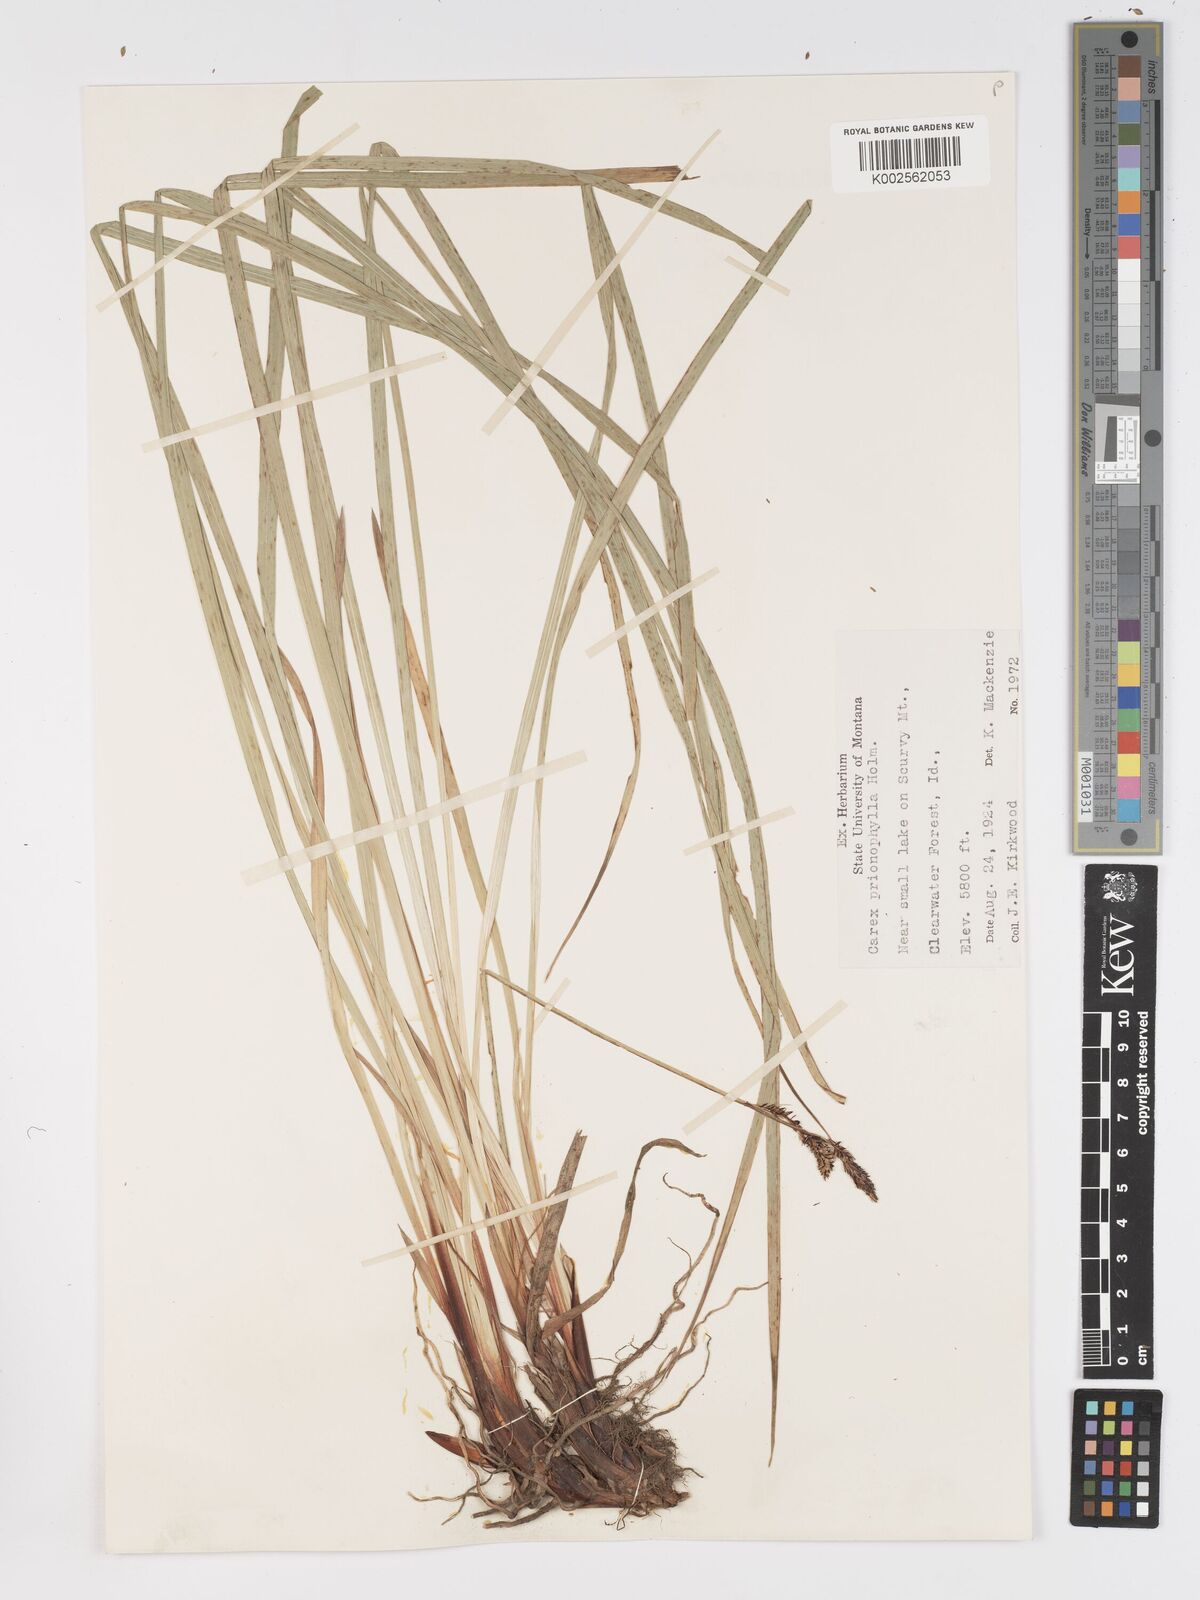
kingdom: Plantae
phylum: Tracheophyta
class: Liliopsida
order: Poales
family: Cyperaceae
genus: Carex
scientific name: Carex scopulorum
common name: Holm's rocky mountain sedge
